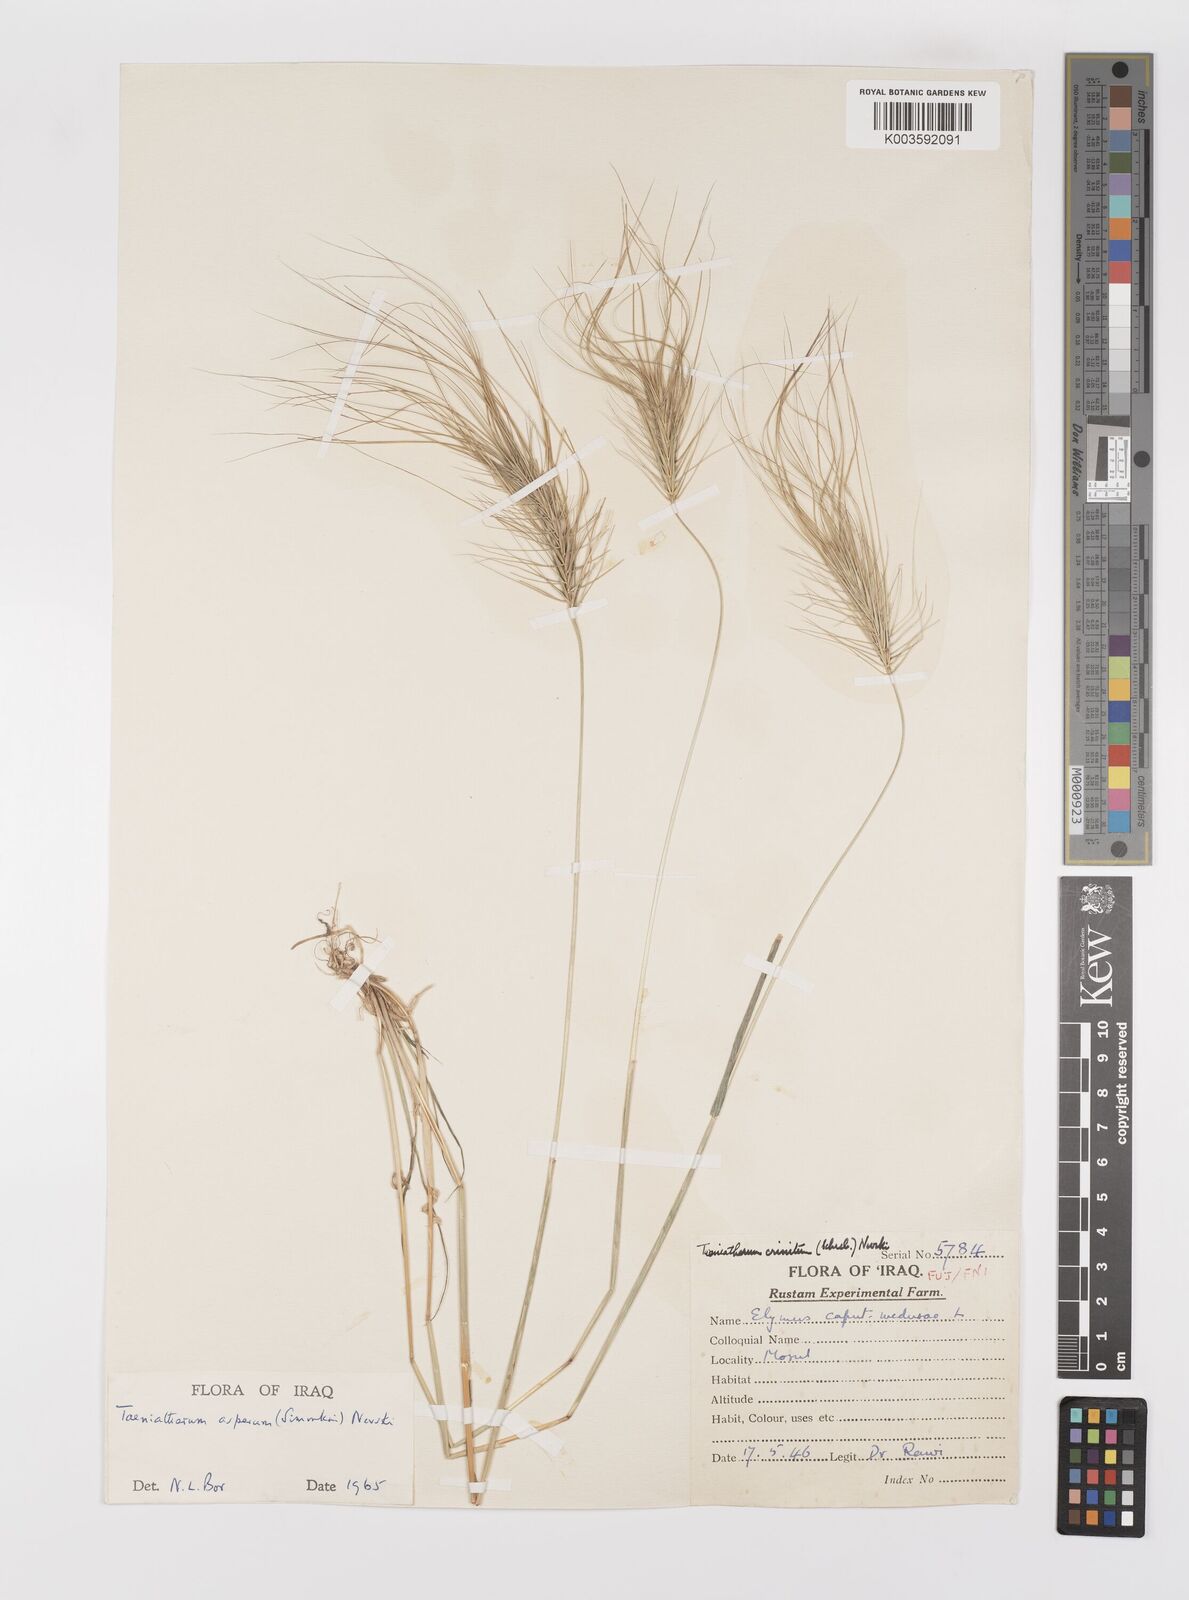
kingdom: Plantae
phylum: Tracheophyta
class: Liliopsida
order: Poales
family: Poaceae
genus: Taeniatherum
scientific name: Taeniatherum caput-medusae
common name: Medusahead
